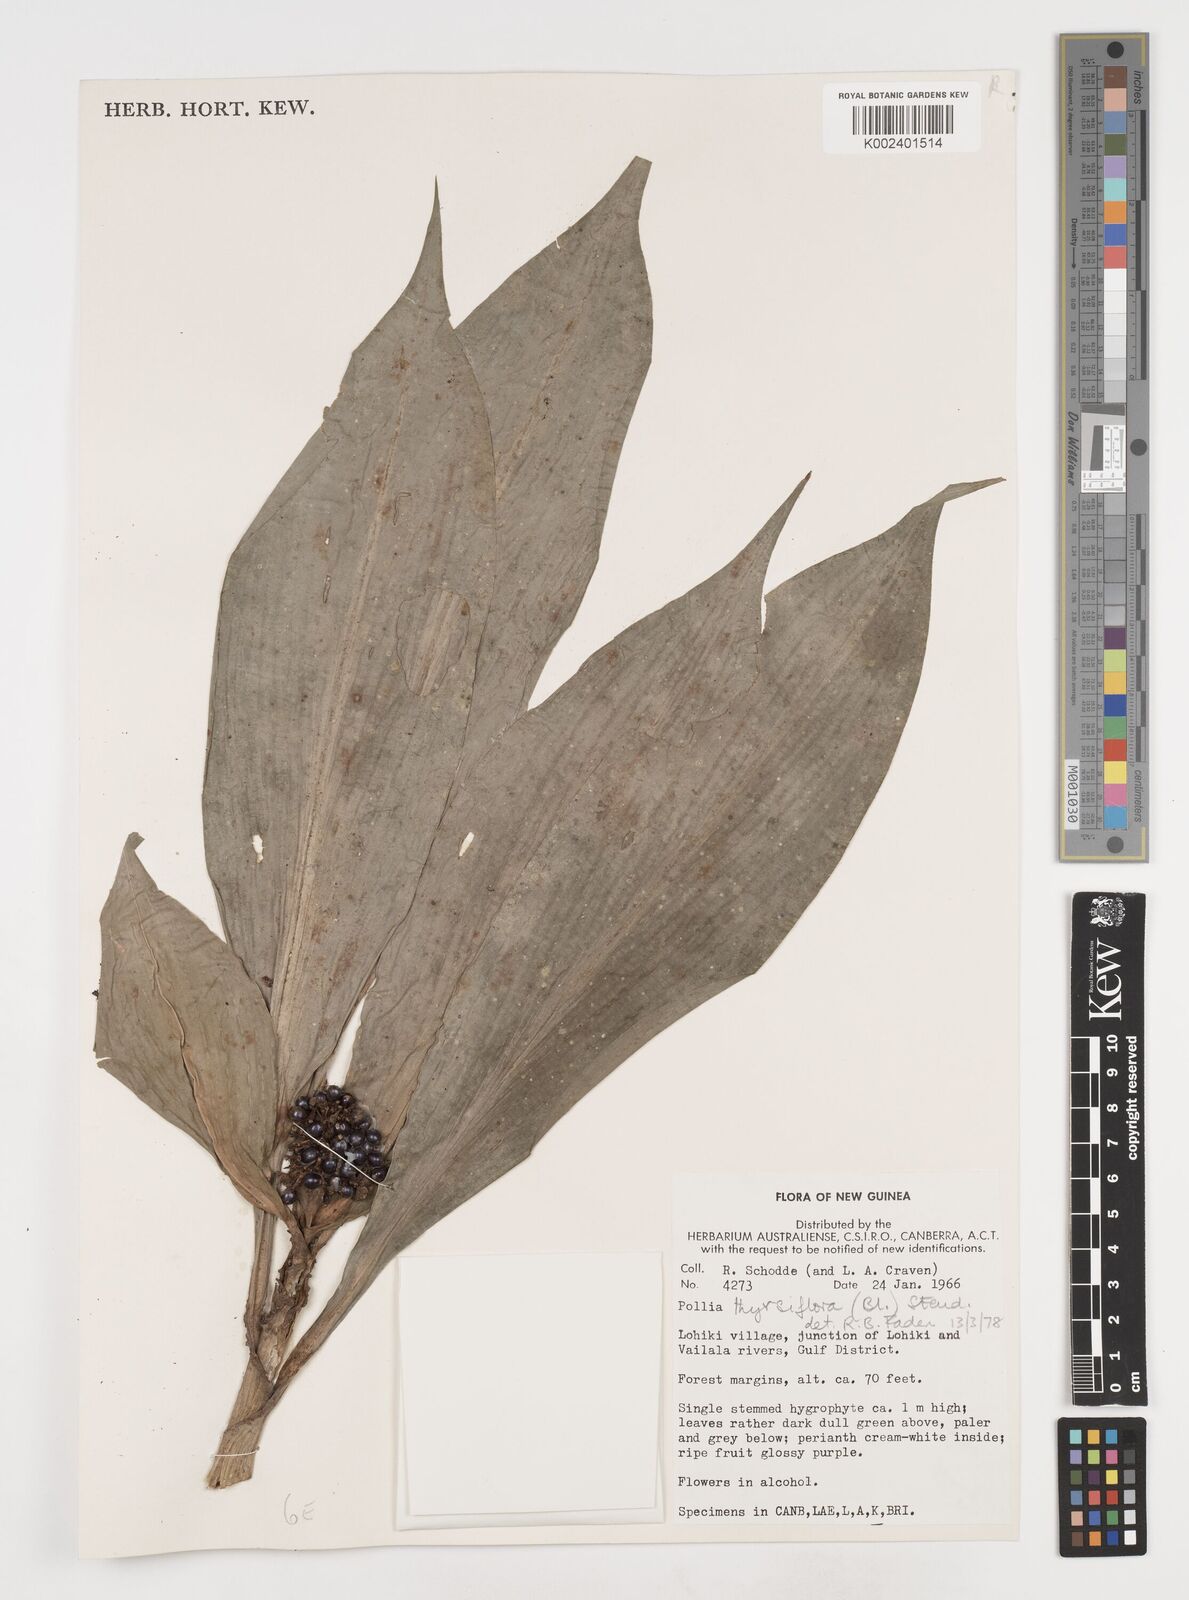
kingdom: Plantae
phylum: Tracheophyta
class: Liliopsida
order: Commelinales
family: Commelinaceae
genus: Pollia
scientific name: Pollia thyrsiflora
